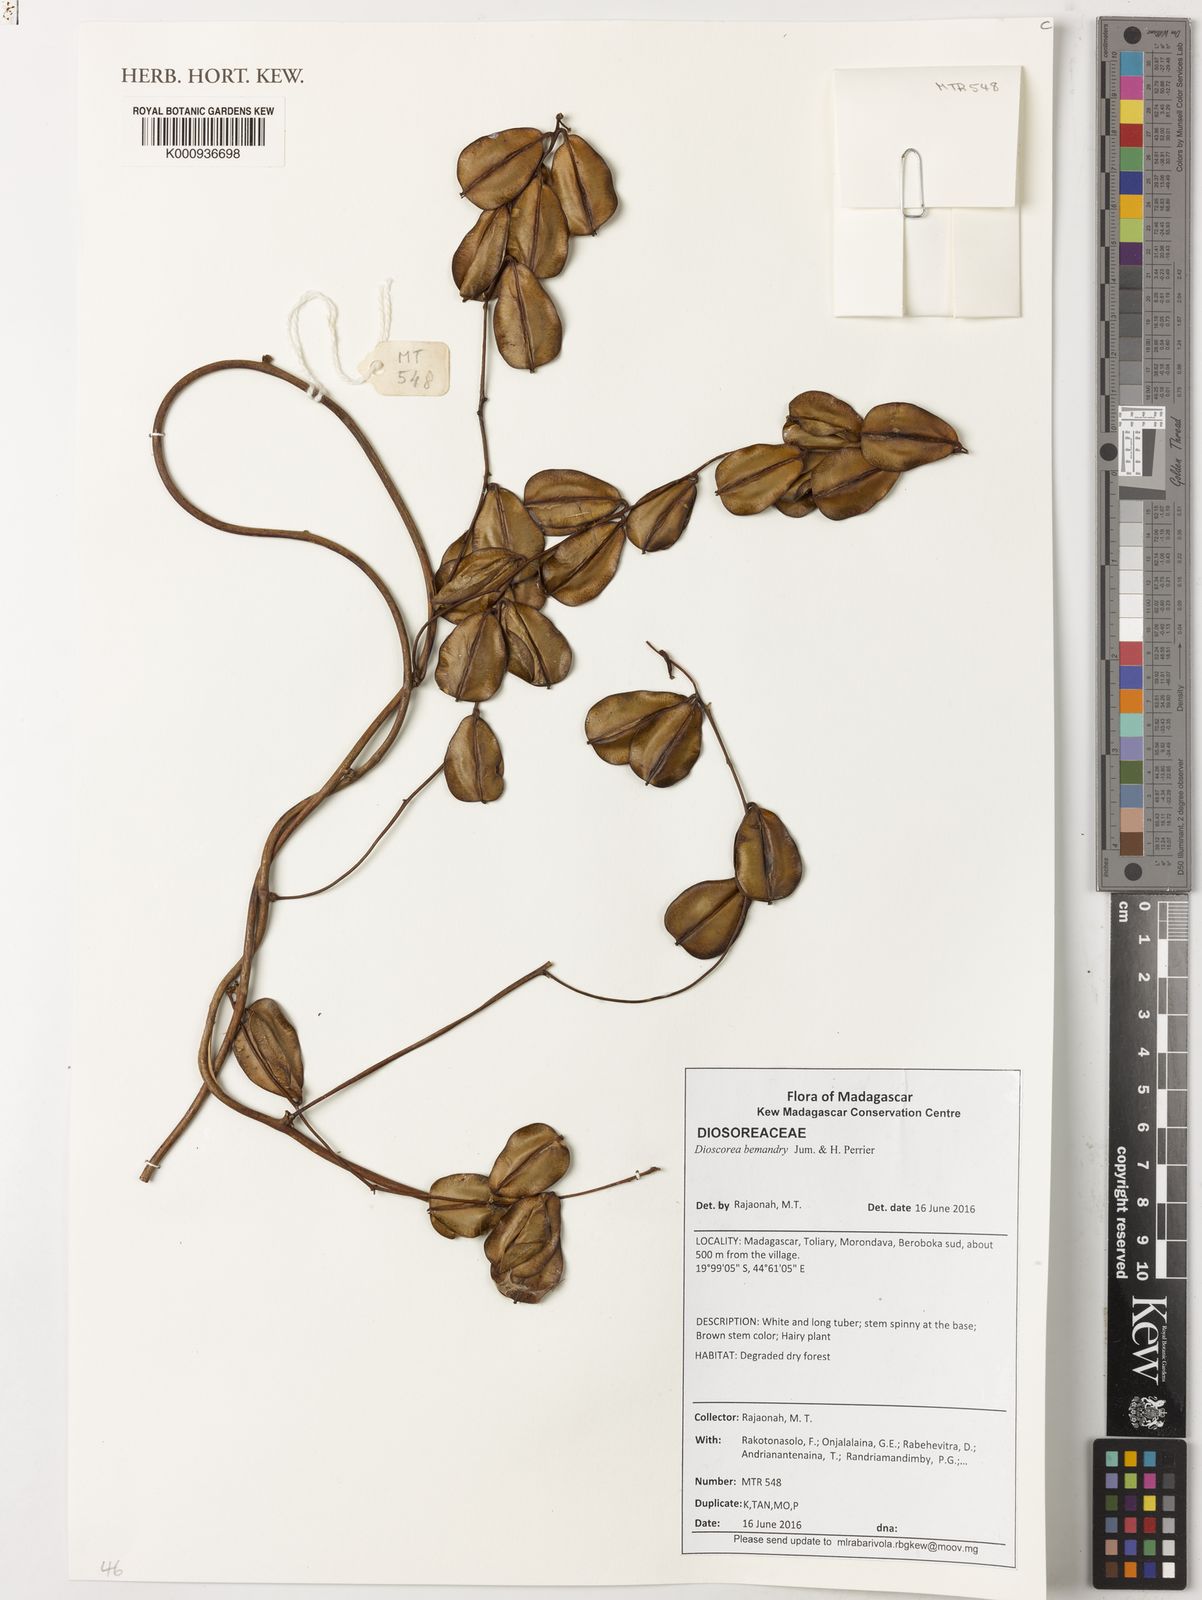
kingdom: Plantae
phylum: Tracheophyta
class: Liliopsida
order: Dioscoreales
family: Dioscoreaceae
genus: Dioscorea
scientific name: Dioscorea bemandry
